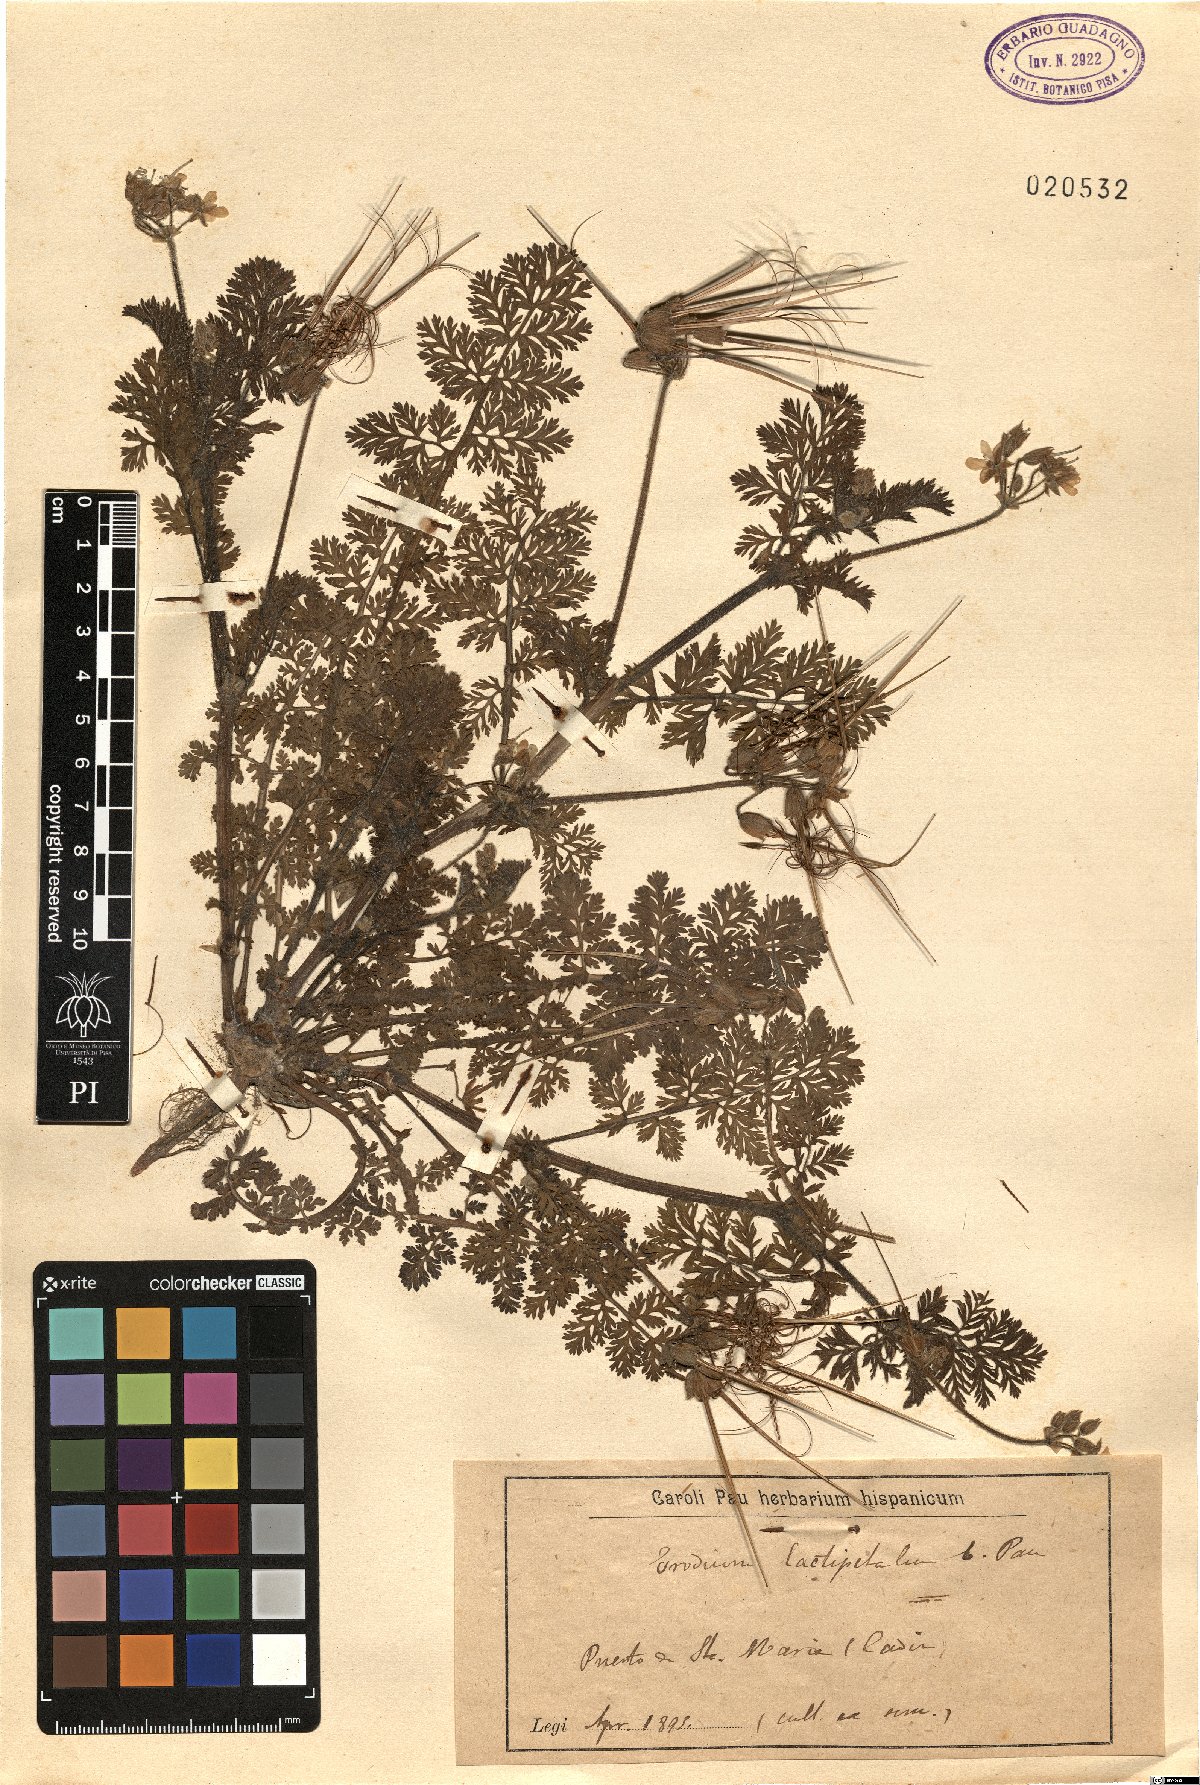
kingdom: Plantae
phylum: Tracheophyta
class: Magnoliopsida
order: Geraniales
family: Geraniaceae
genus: Erodium
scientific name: Erodium
